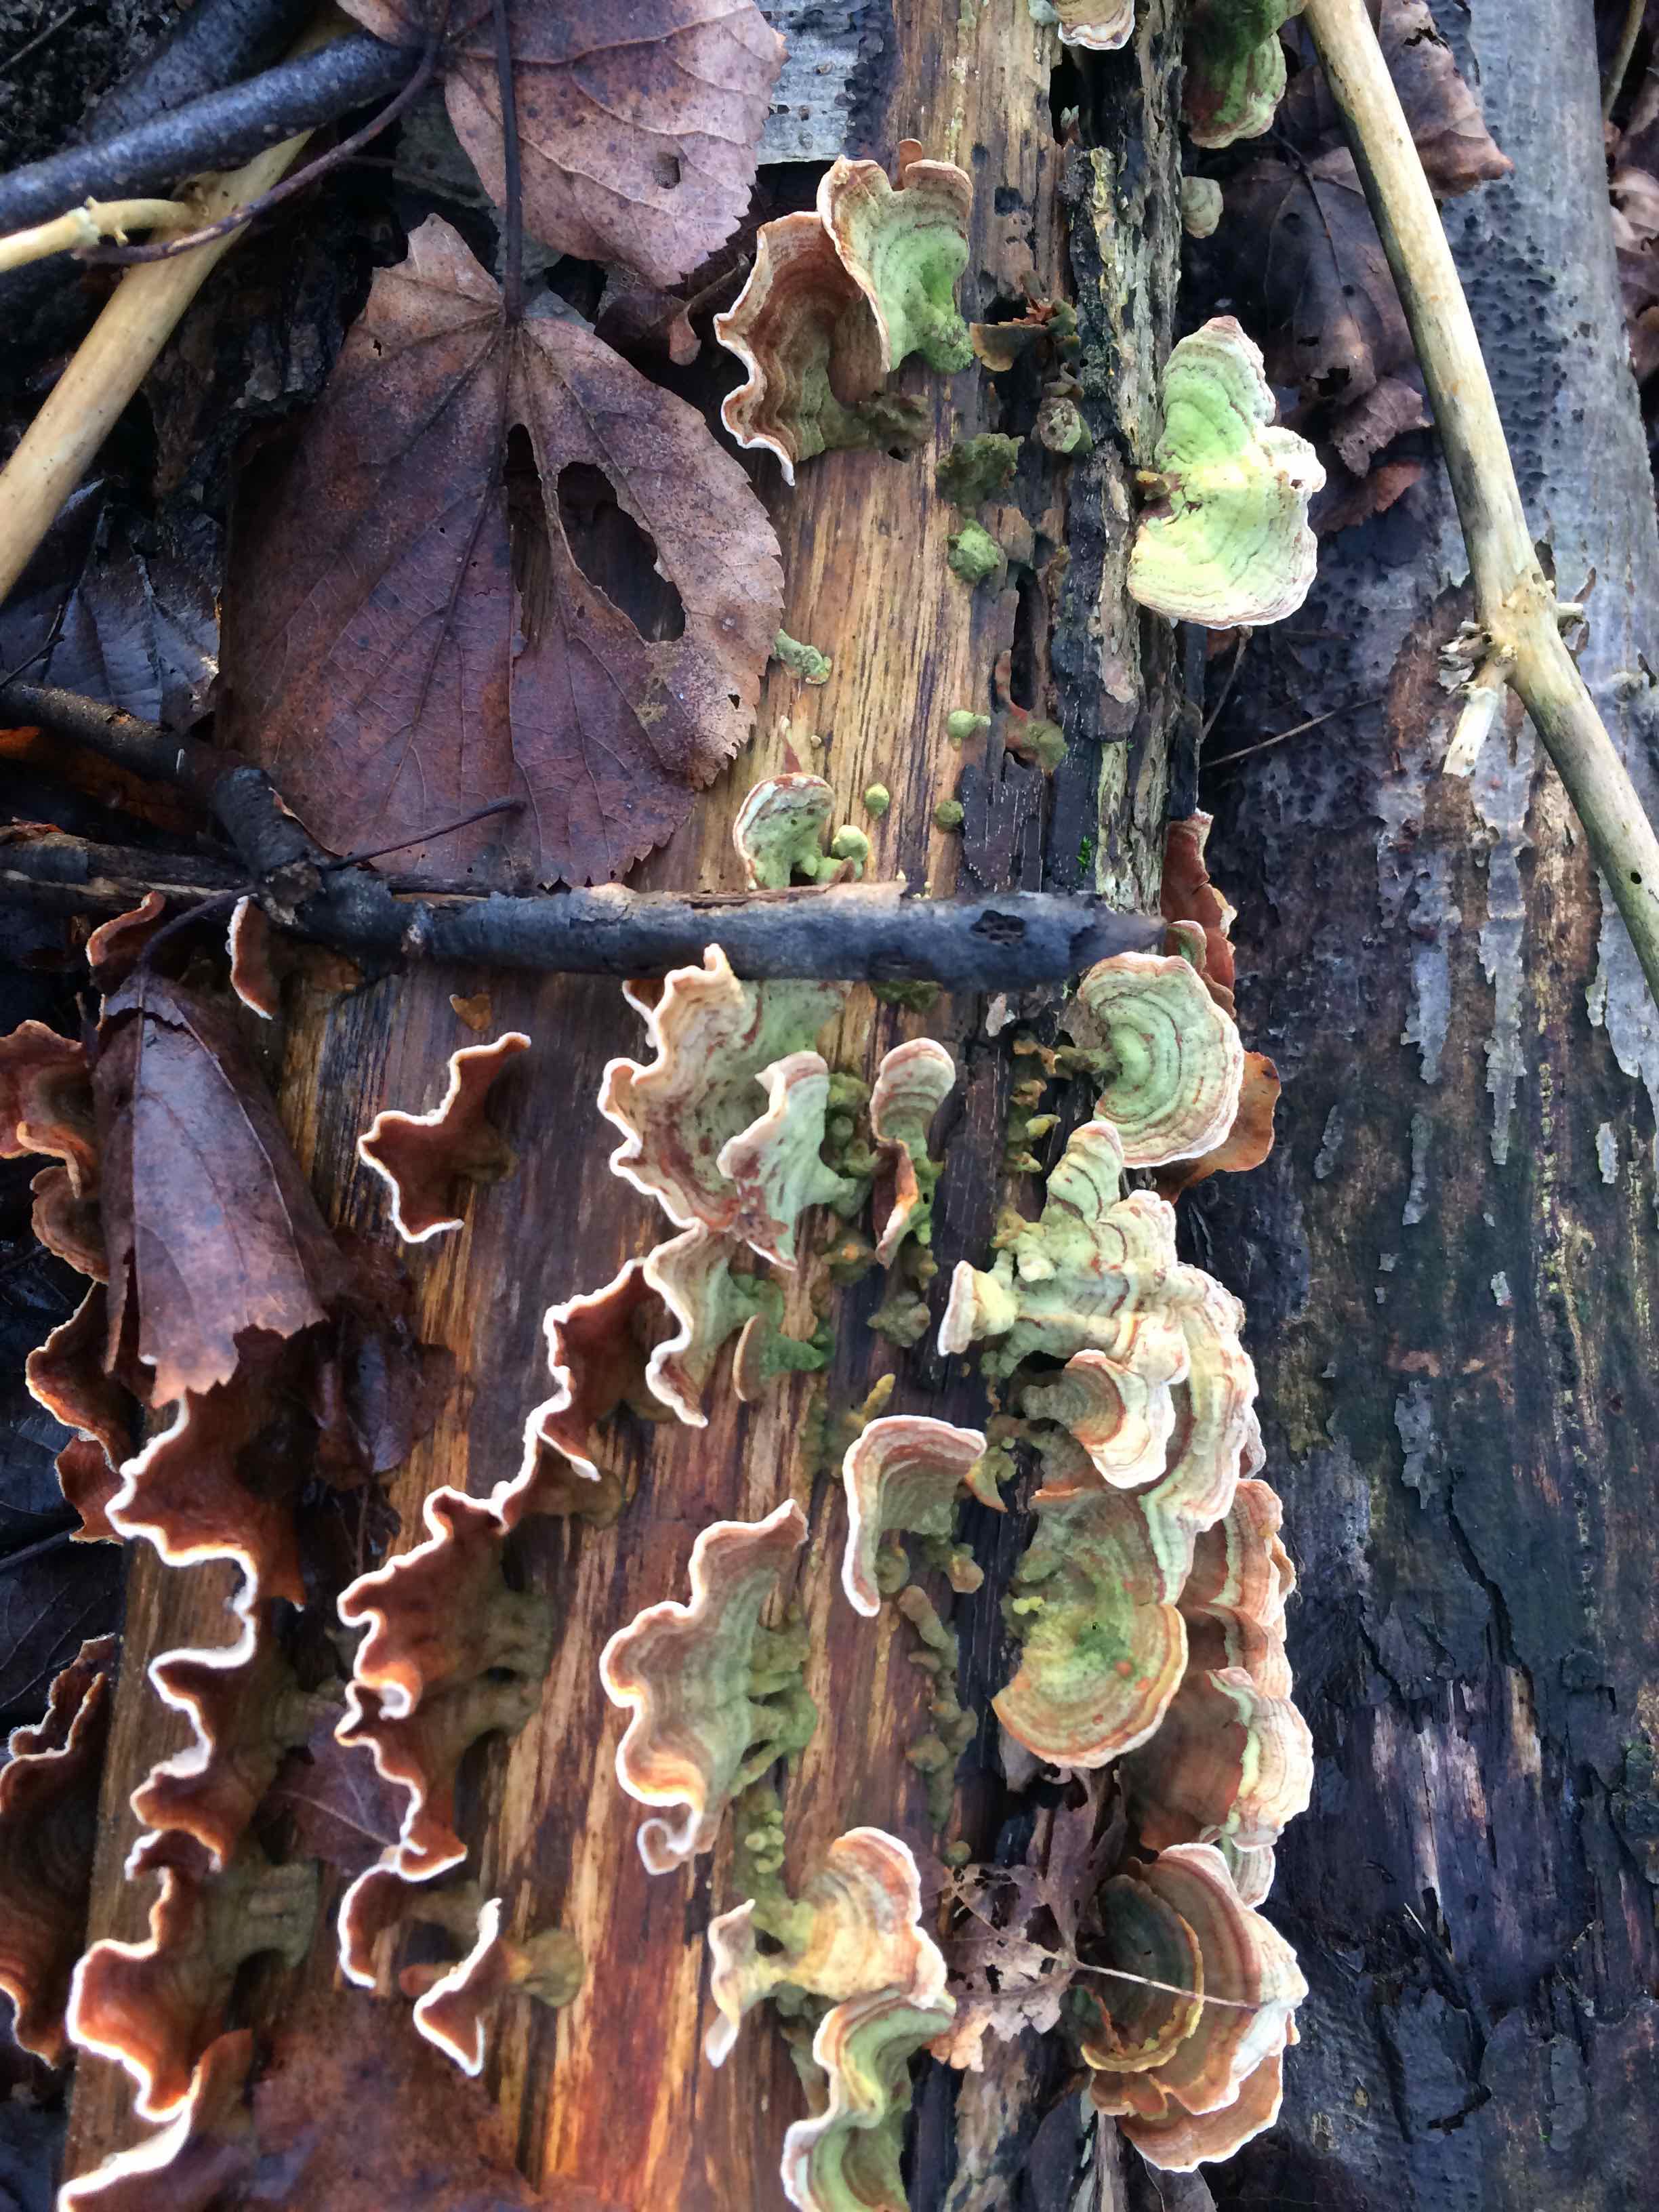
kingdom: Fungi
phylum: Basidiomycota
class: Agaricomycetes
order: Russulales
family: Stereaceae
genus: Stereum
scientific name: Stereum subtomentosum
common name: smuk lædersvamp
